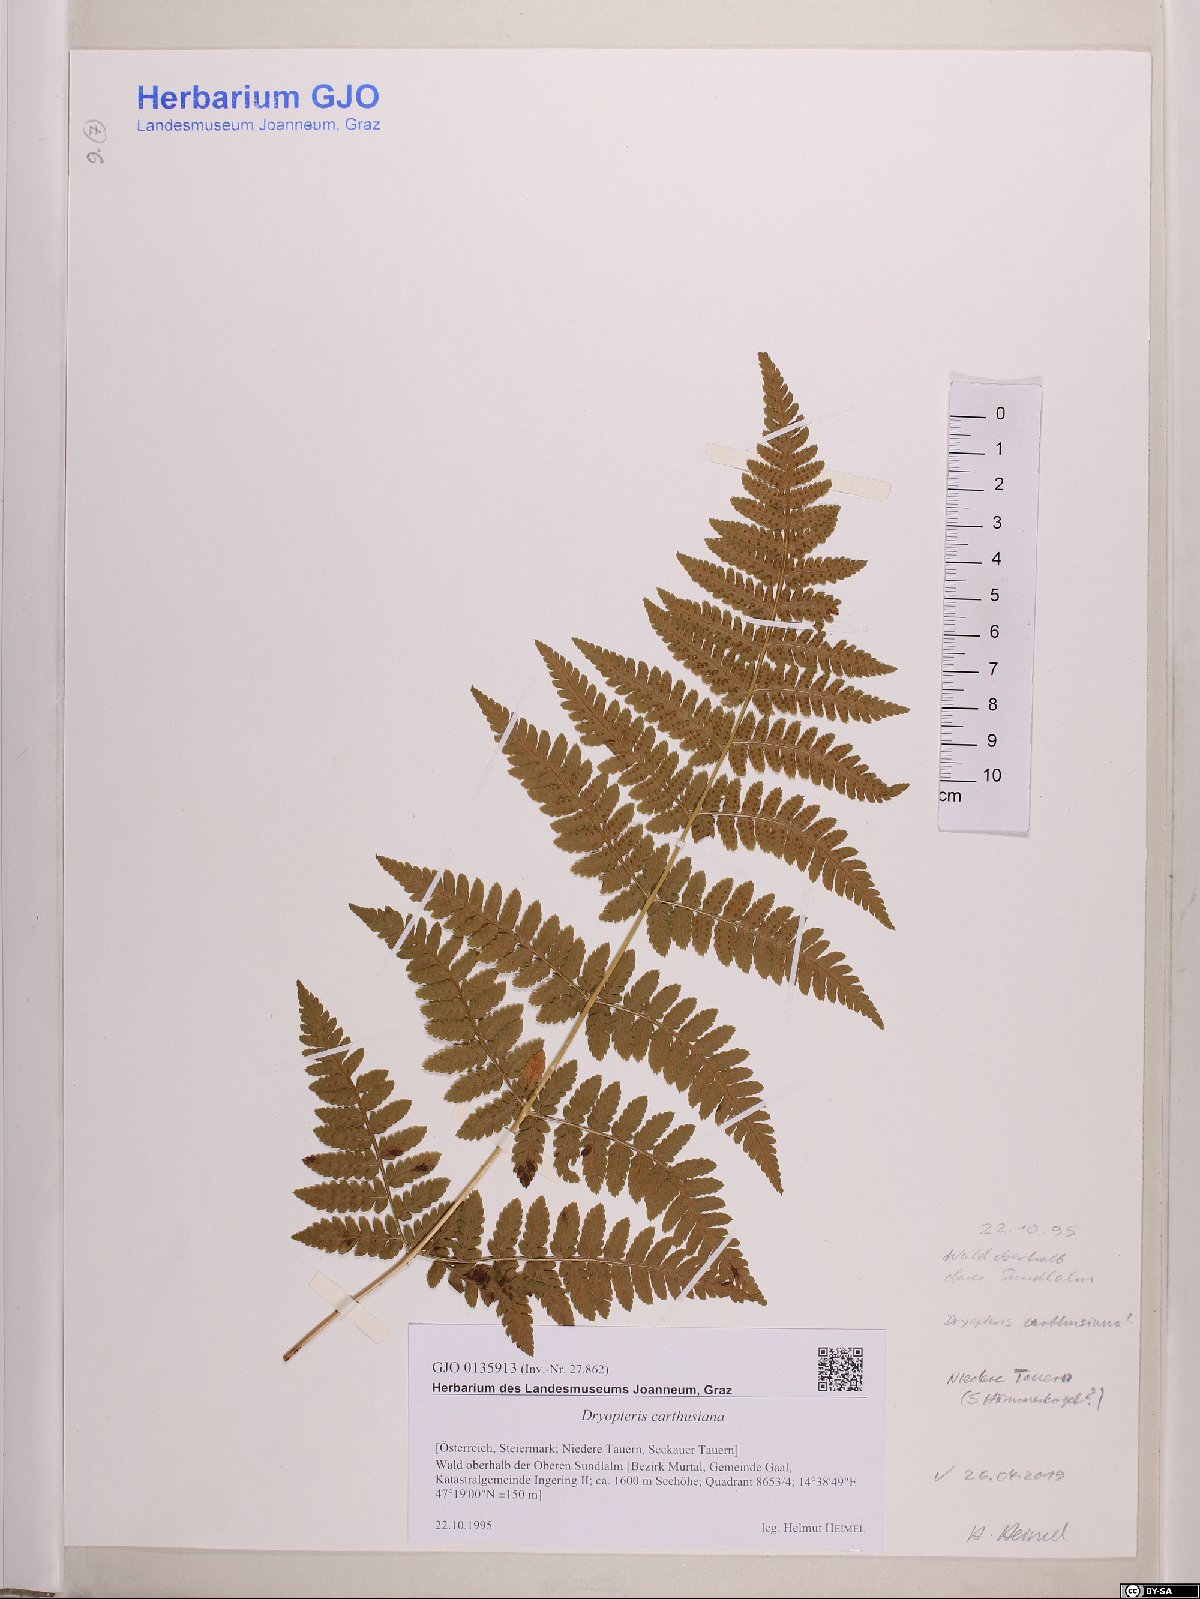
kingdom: Plantae
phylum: Tracheophyta
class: Polypodiopsida
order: Polypodiales
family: Dryopteridaceae
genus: Dryopteris
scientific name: Dryopteris carthusiana
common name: Narrow buckler-fern
